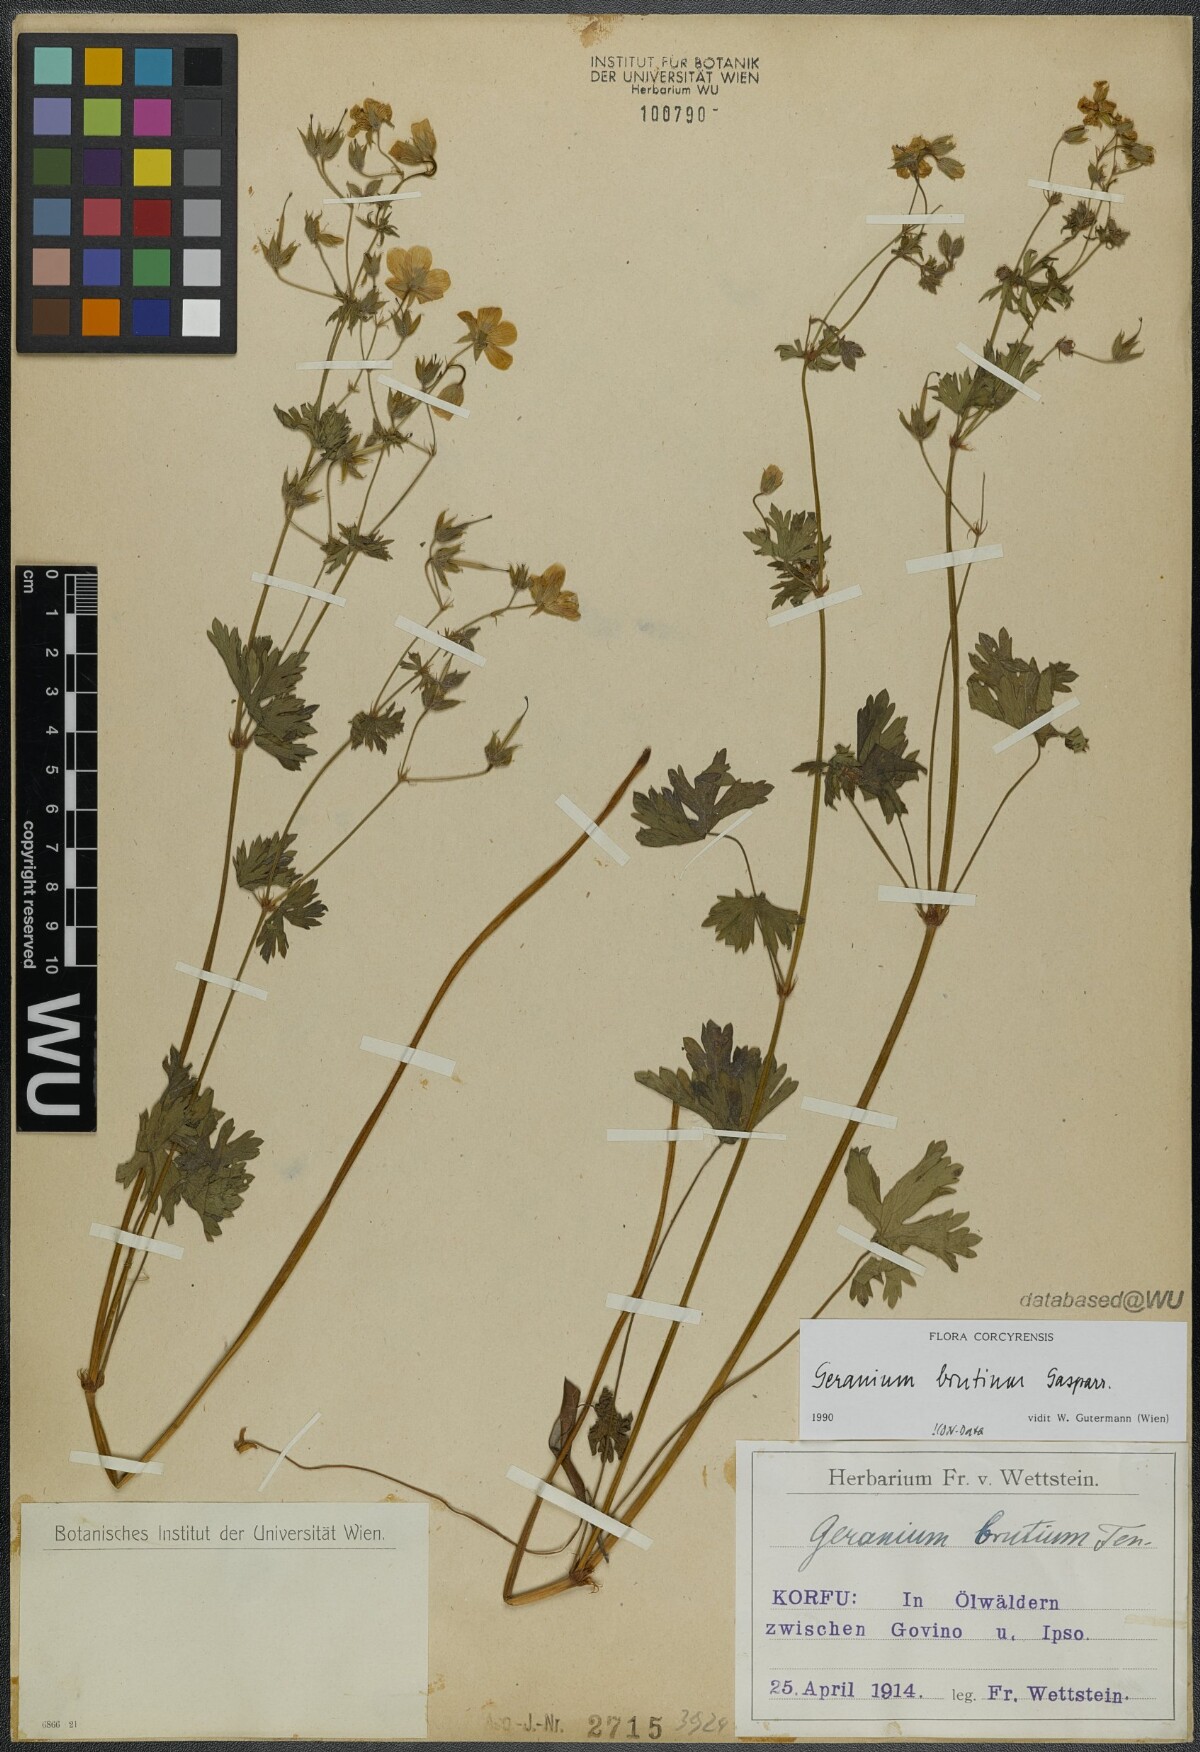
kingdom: Plantae
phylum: Tracheophyta
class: Magnoliopsida
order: Geraniales
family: Geraniaceae
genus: Geranium
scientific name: Geranium molle
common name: Dove's-foot crane's-bill
